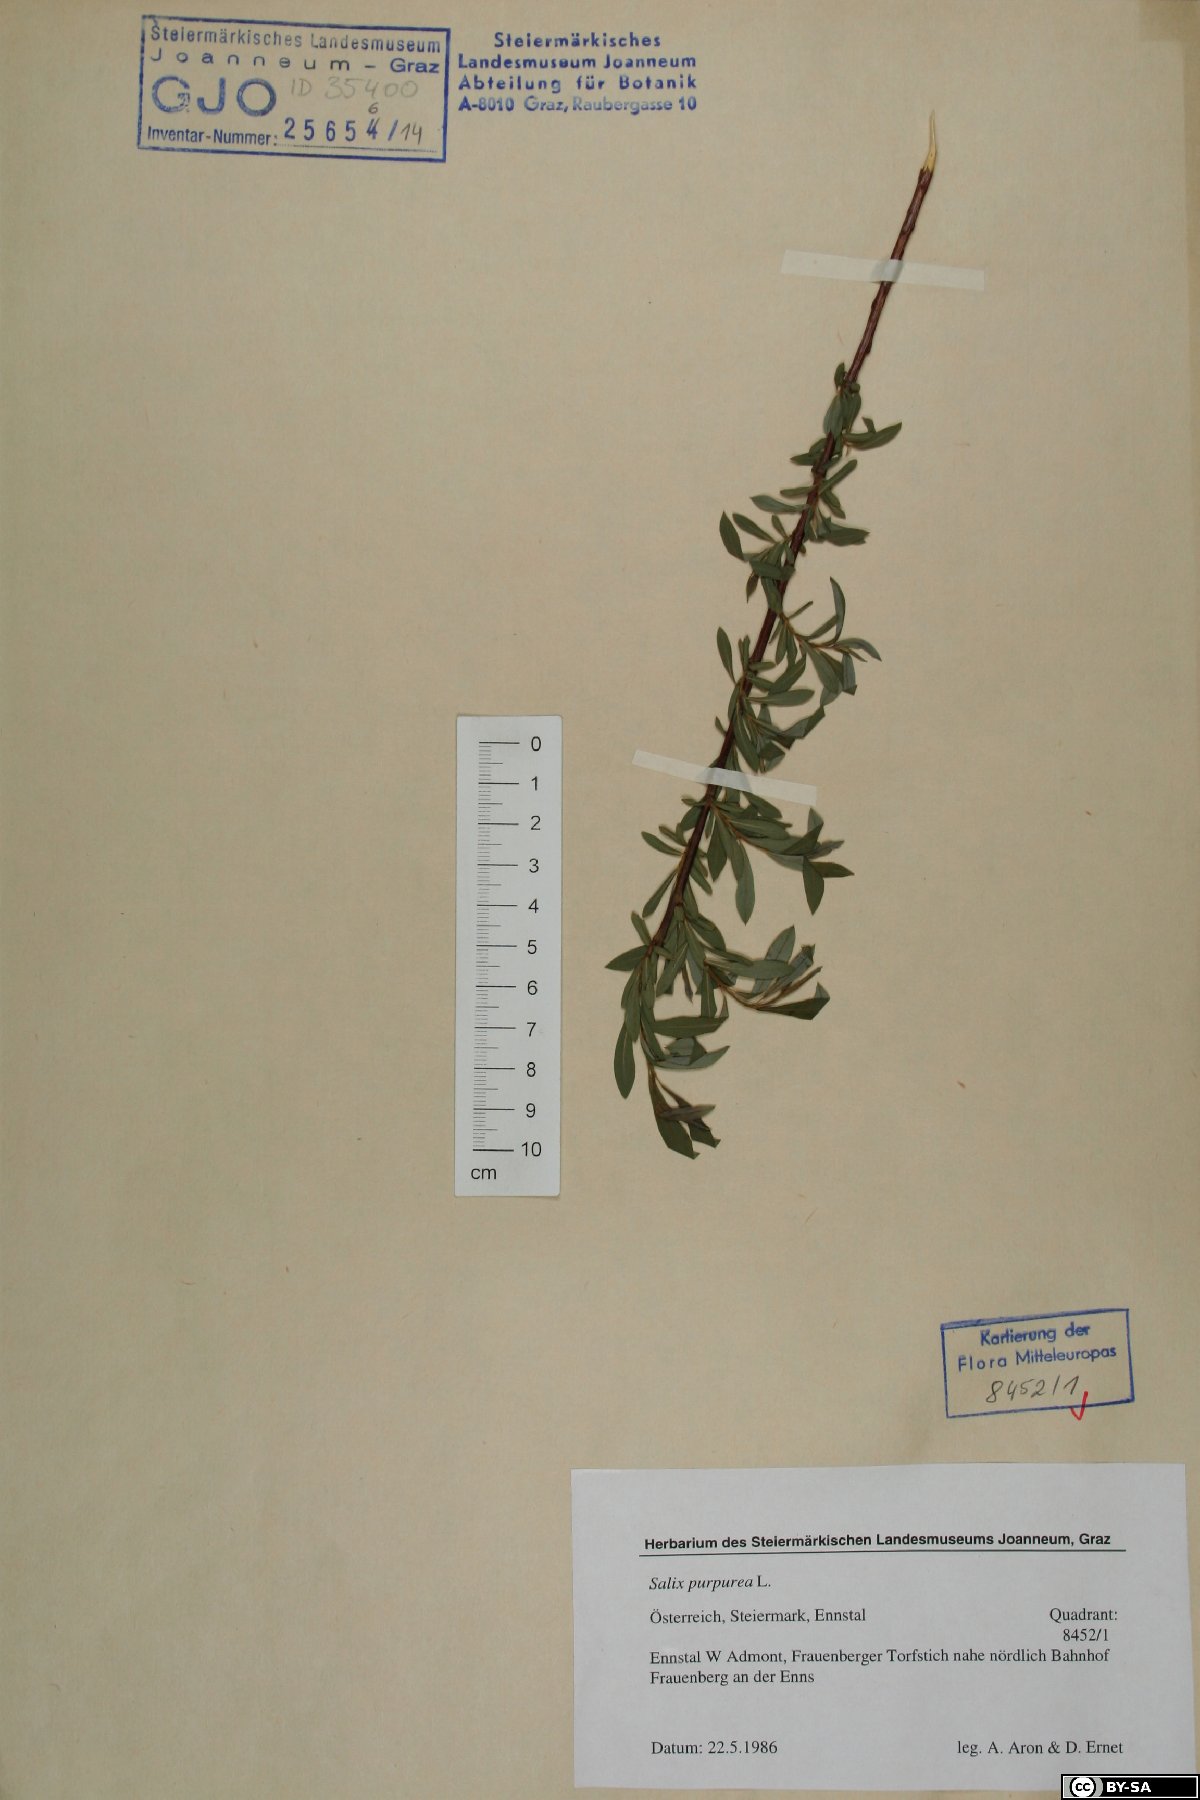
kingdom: Plantae
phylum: Tracheophyta
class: Magnoliopsida
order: Malpighiales
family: Salicaceae
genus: Salix
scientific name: Salix purpurea
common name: Purple willow
